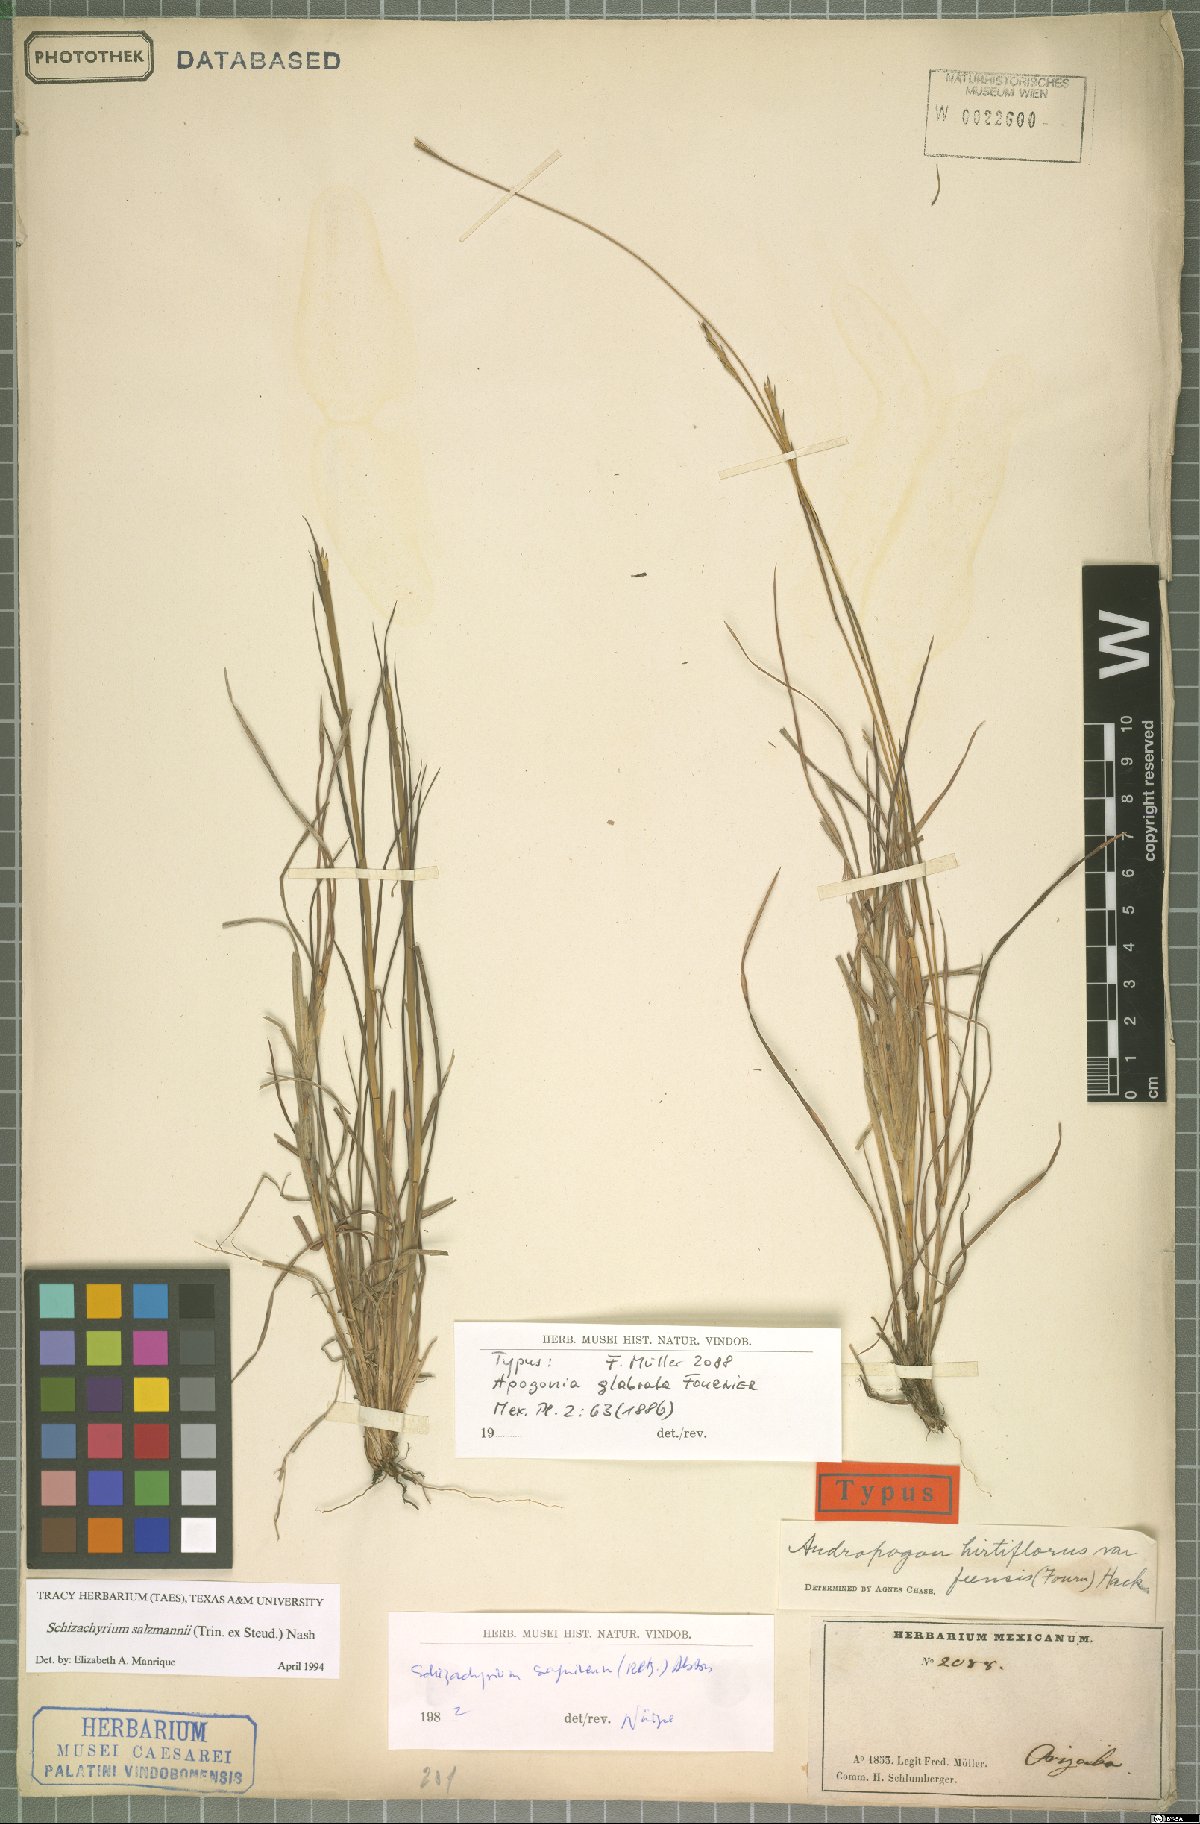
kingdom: Plantae
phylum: Tracheophyta
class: Liliopsida
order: Poales
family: Poaceae
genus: Andropogon
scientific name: Andropogon salzmannii
